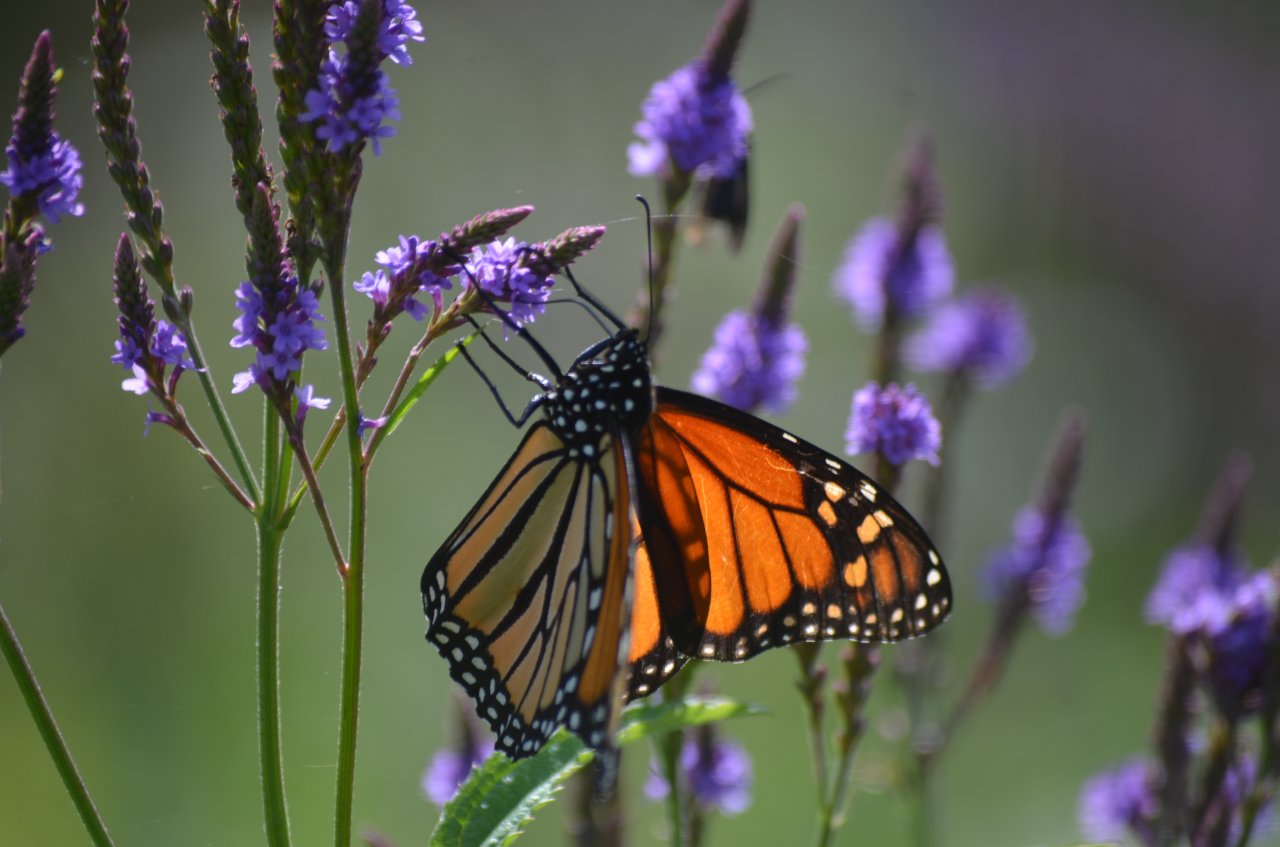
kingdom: Animalia
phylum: Arthropoda
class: Insecta
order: Lepidoptera
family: Nymphalidae
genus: Danaus
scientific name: Danaus plexippus
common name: Monarch
